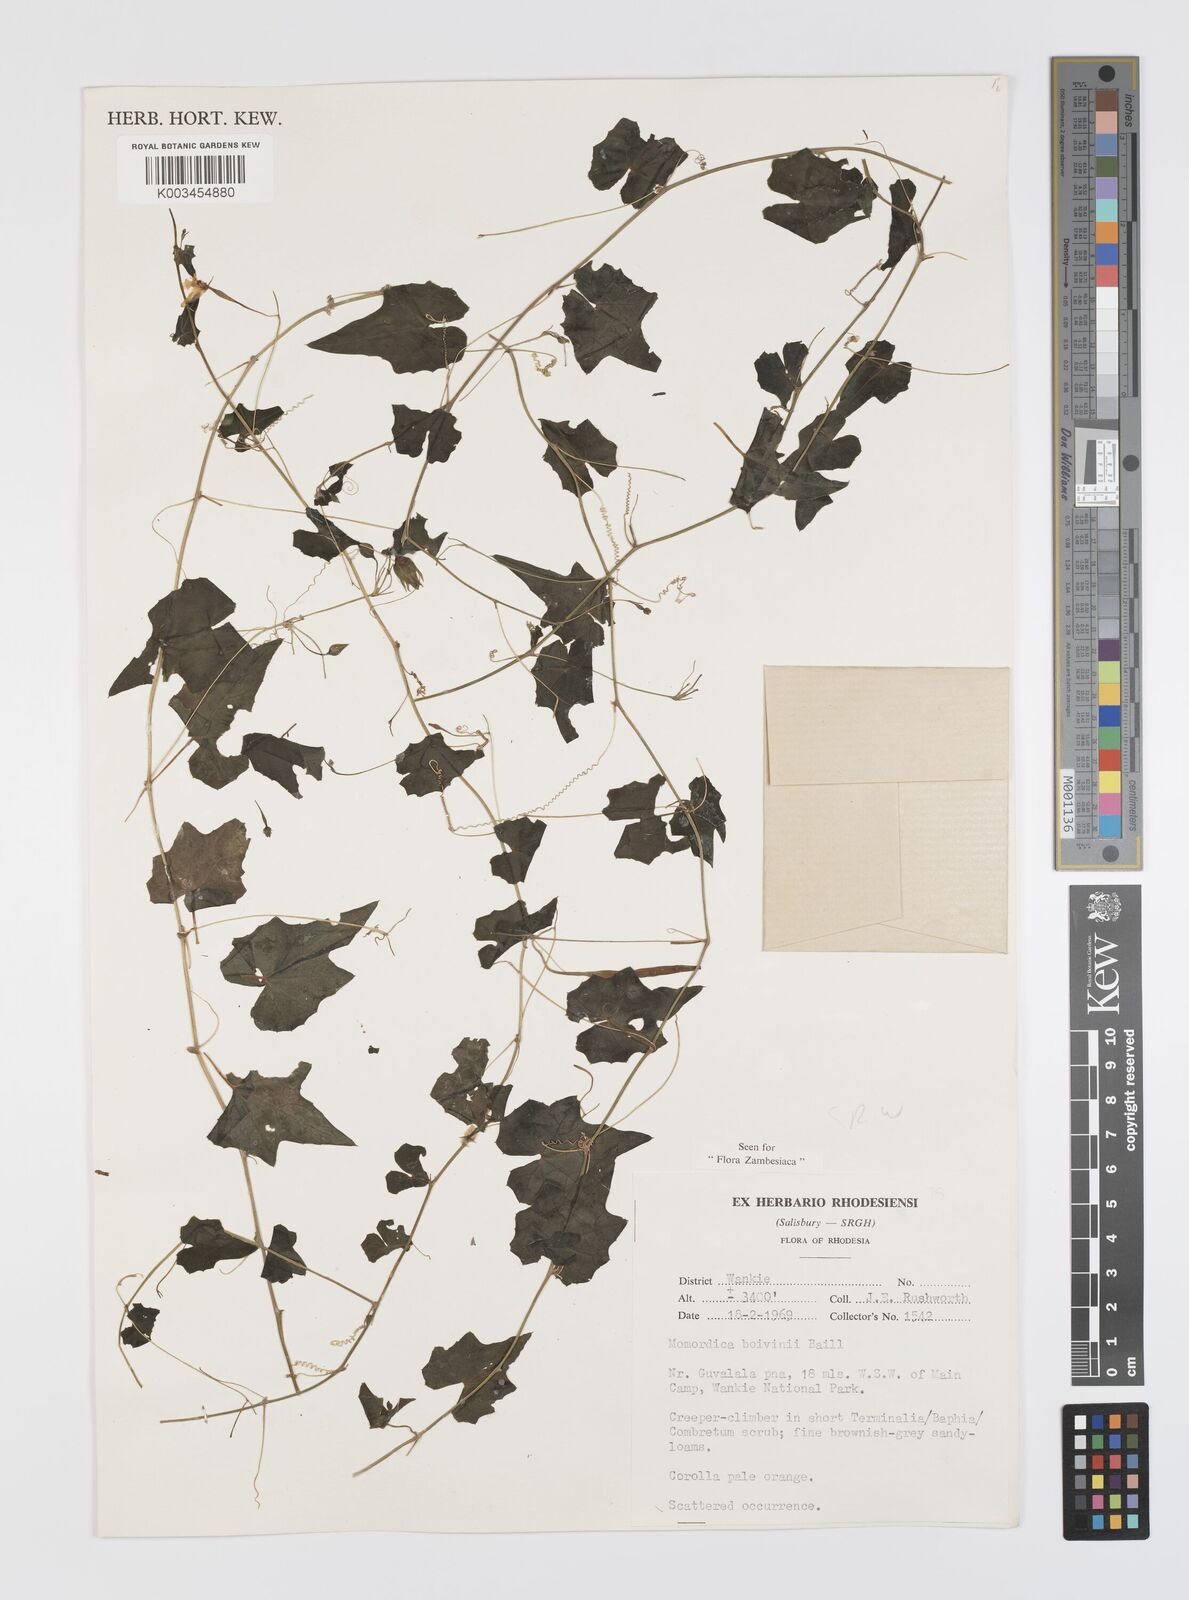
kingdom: Plantae
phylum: Tracheophyta
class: Magnoliopsida
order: Cucurbitales
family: Cucurbitaceae
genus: Momordica
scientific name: Momordica boivinii
